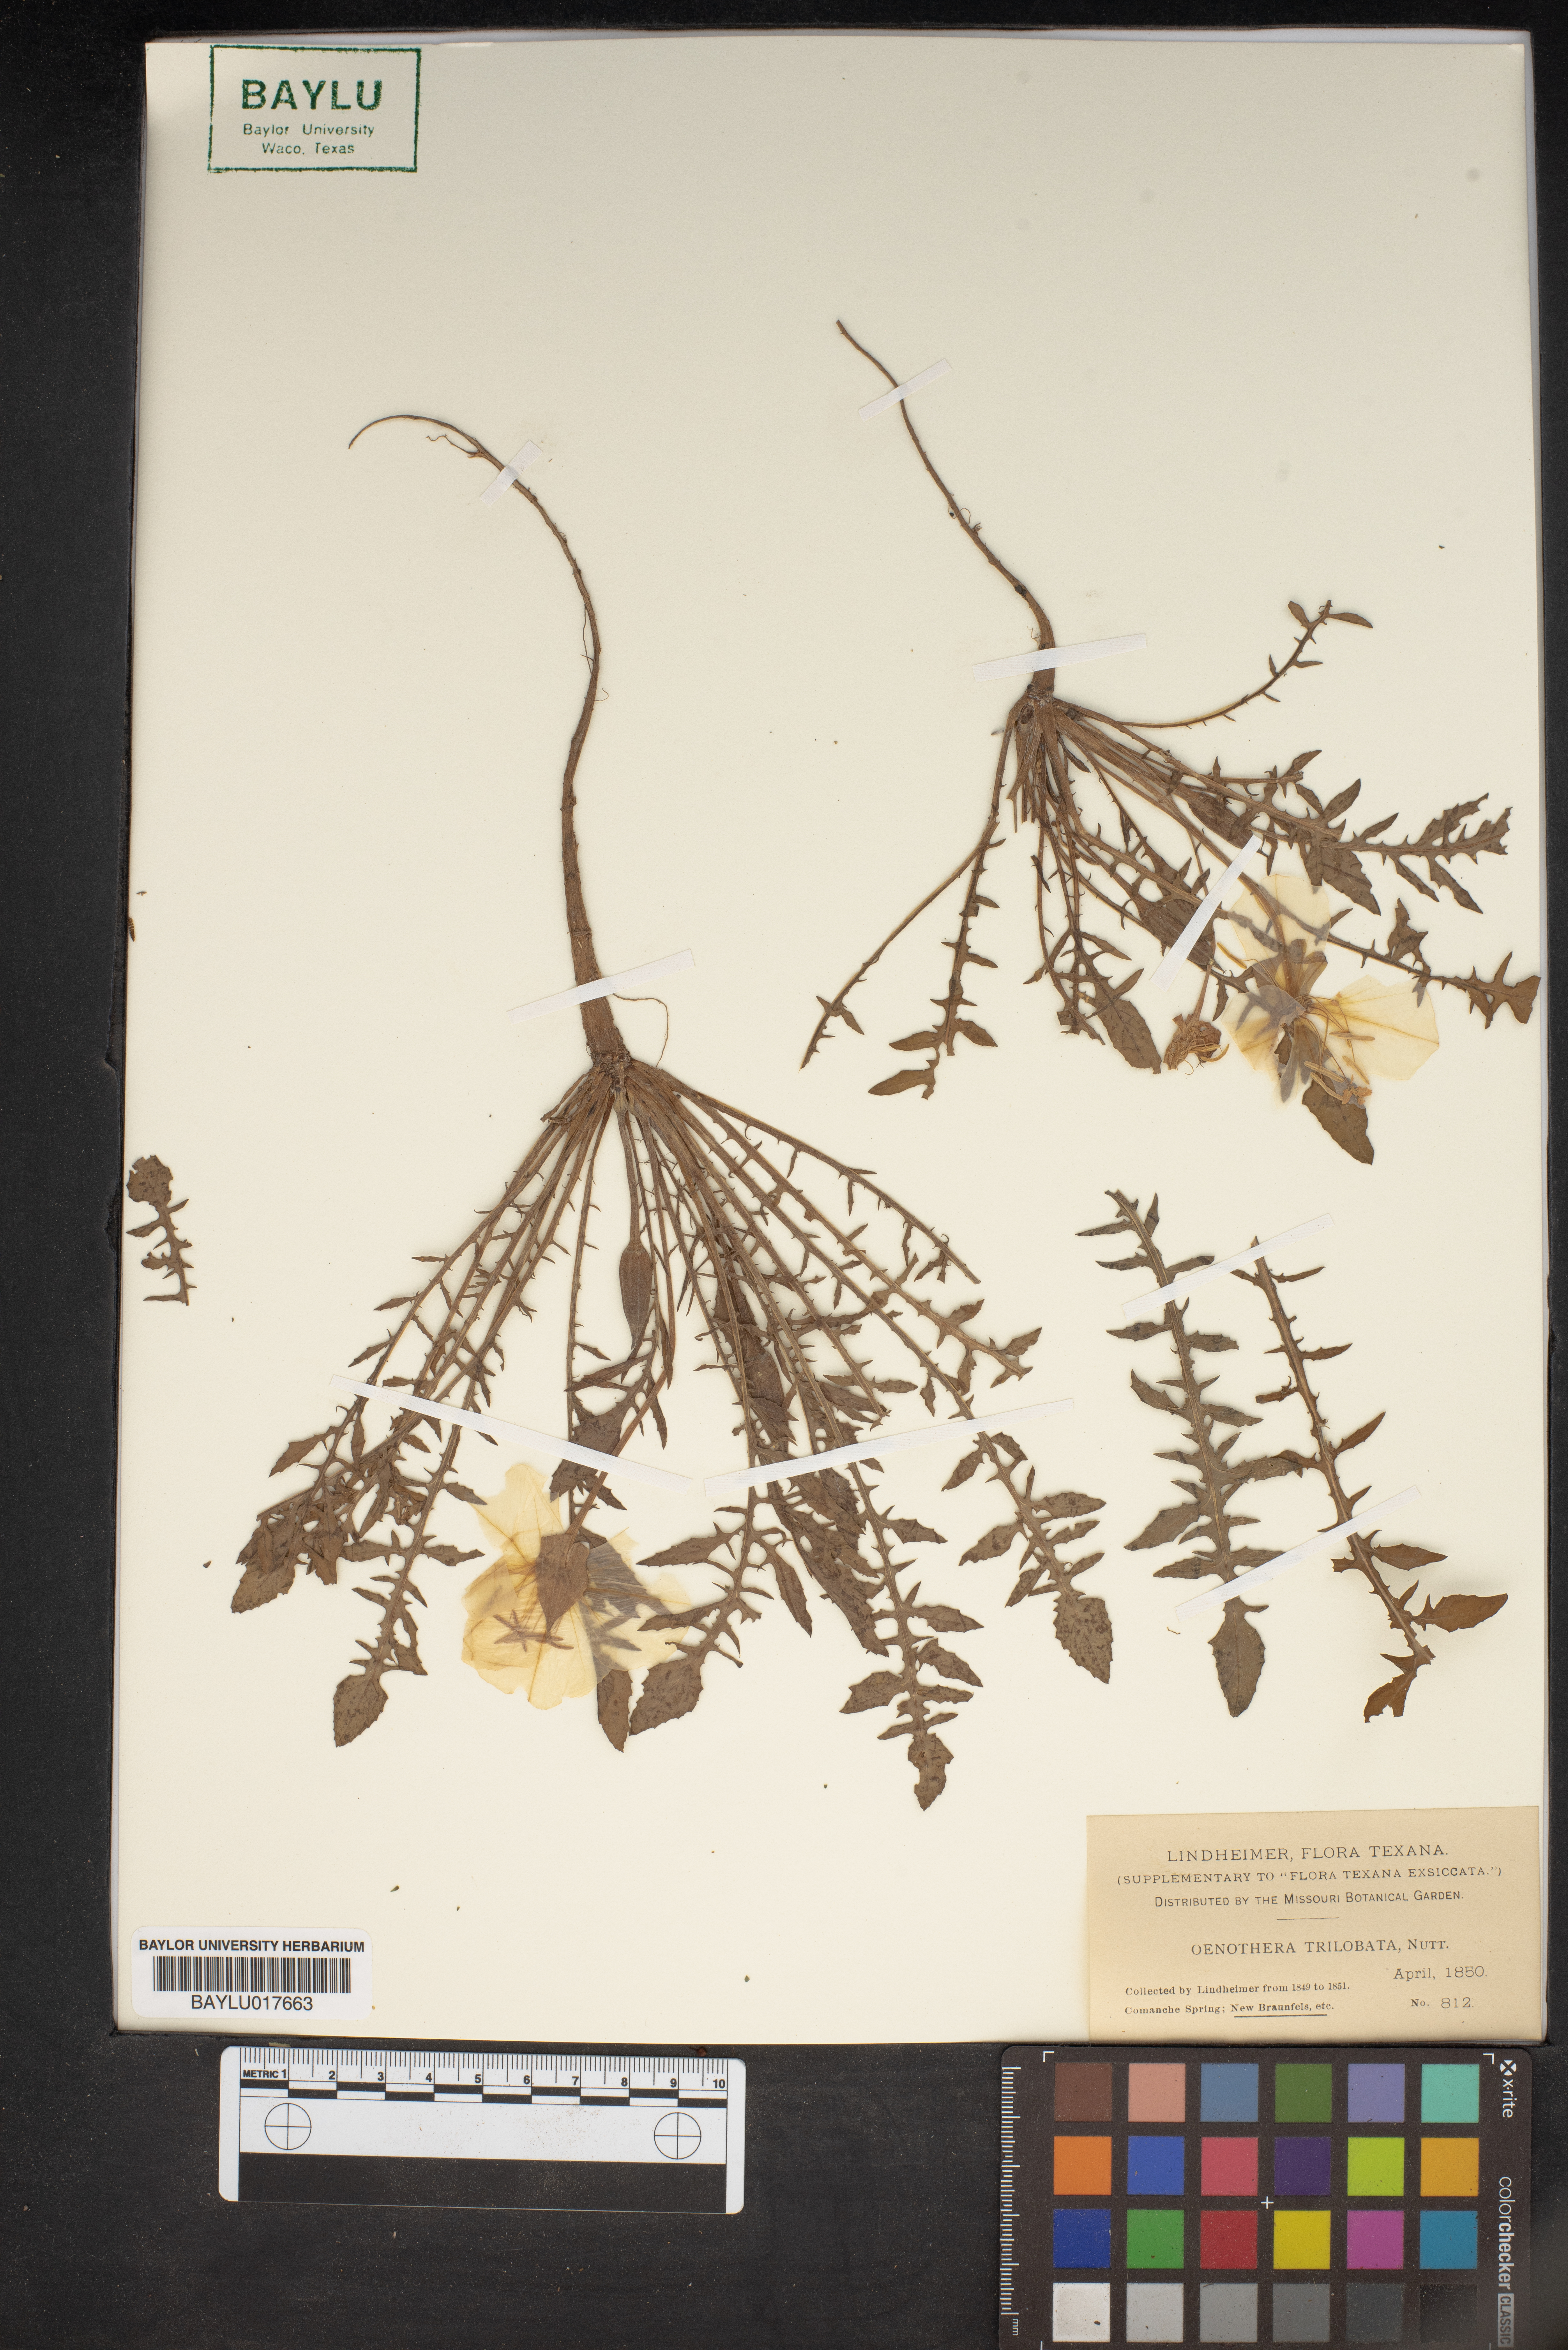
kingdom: Plantae
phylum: Tracheophyta
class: Magnoliopsida
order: Myrtales
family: Onagraceae
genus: Oenothera
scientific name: Oenothera triloba
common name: Sessile evening-primrose
